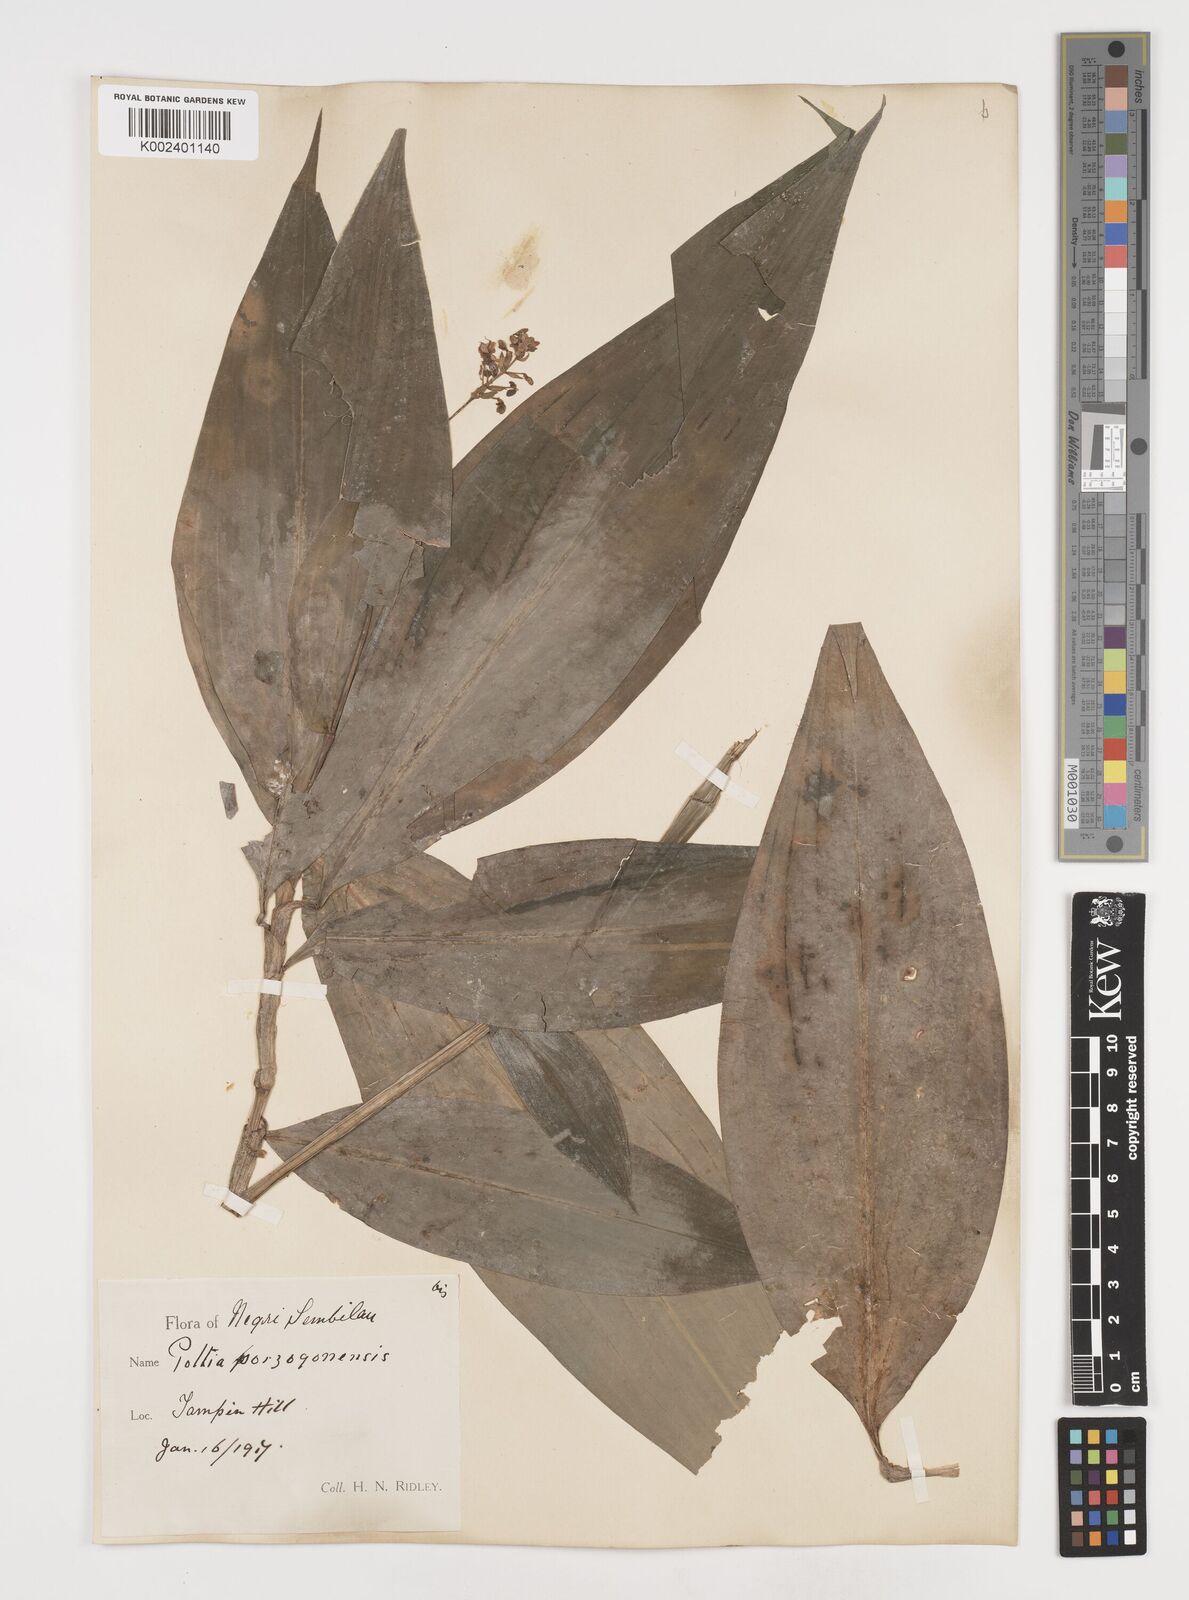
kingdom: Plantae
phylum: Tracheophyta
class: Liliopsida
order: Commelinales
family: Commelinaceae
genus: Pollia
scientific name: Pollia secundiflora
